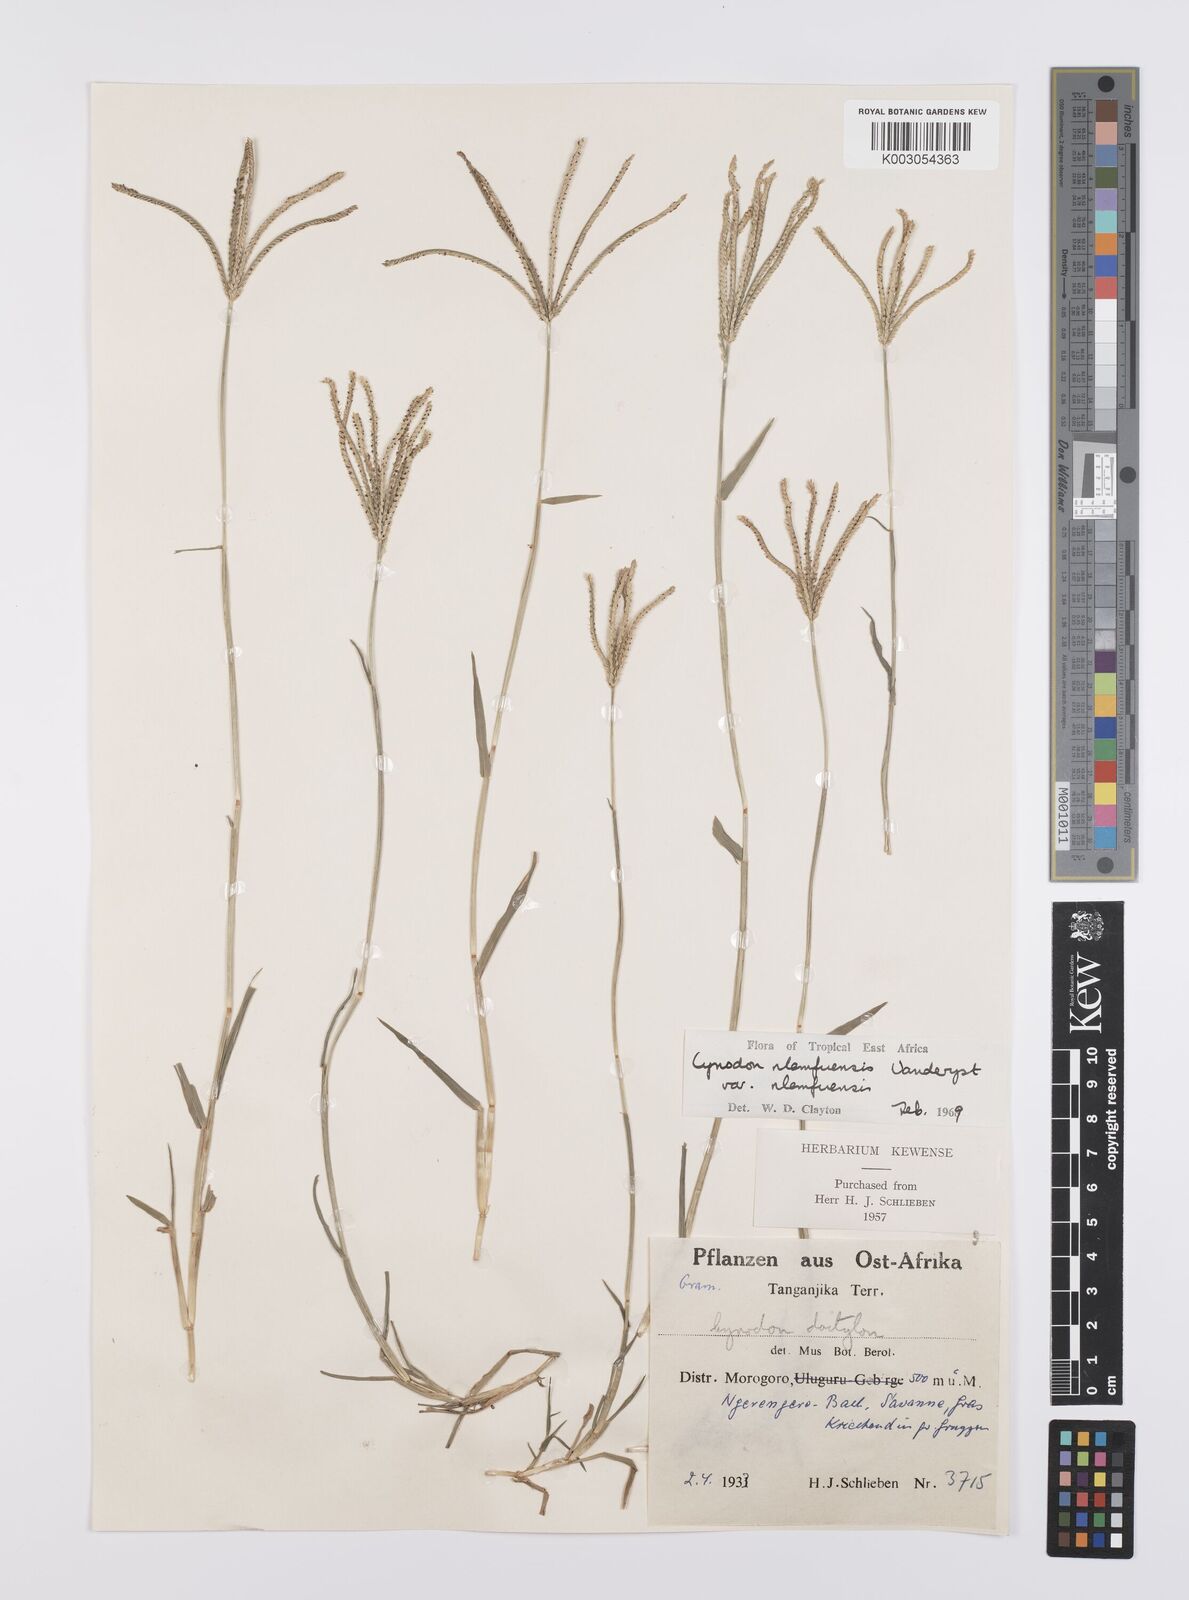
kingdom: Plantae
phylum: Tracheophyta
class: Liliopsida
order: Poales
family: Poaceae
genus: Cynodon
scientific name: Cynodon nlemfuensis
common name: African bermudagrass
